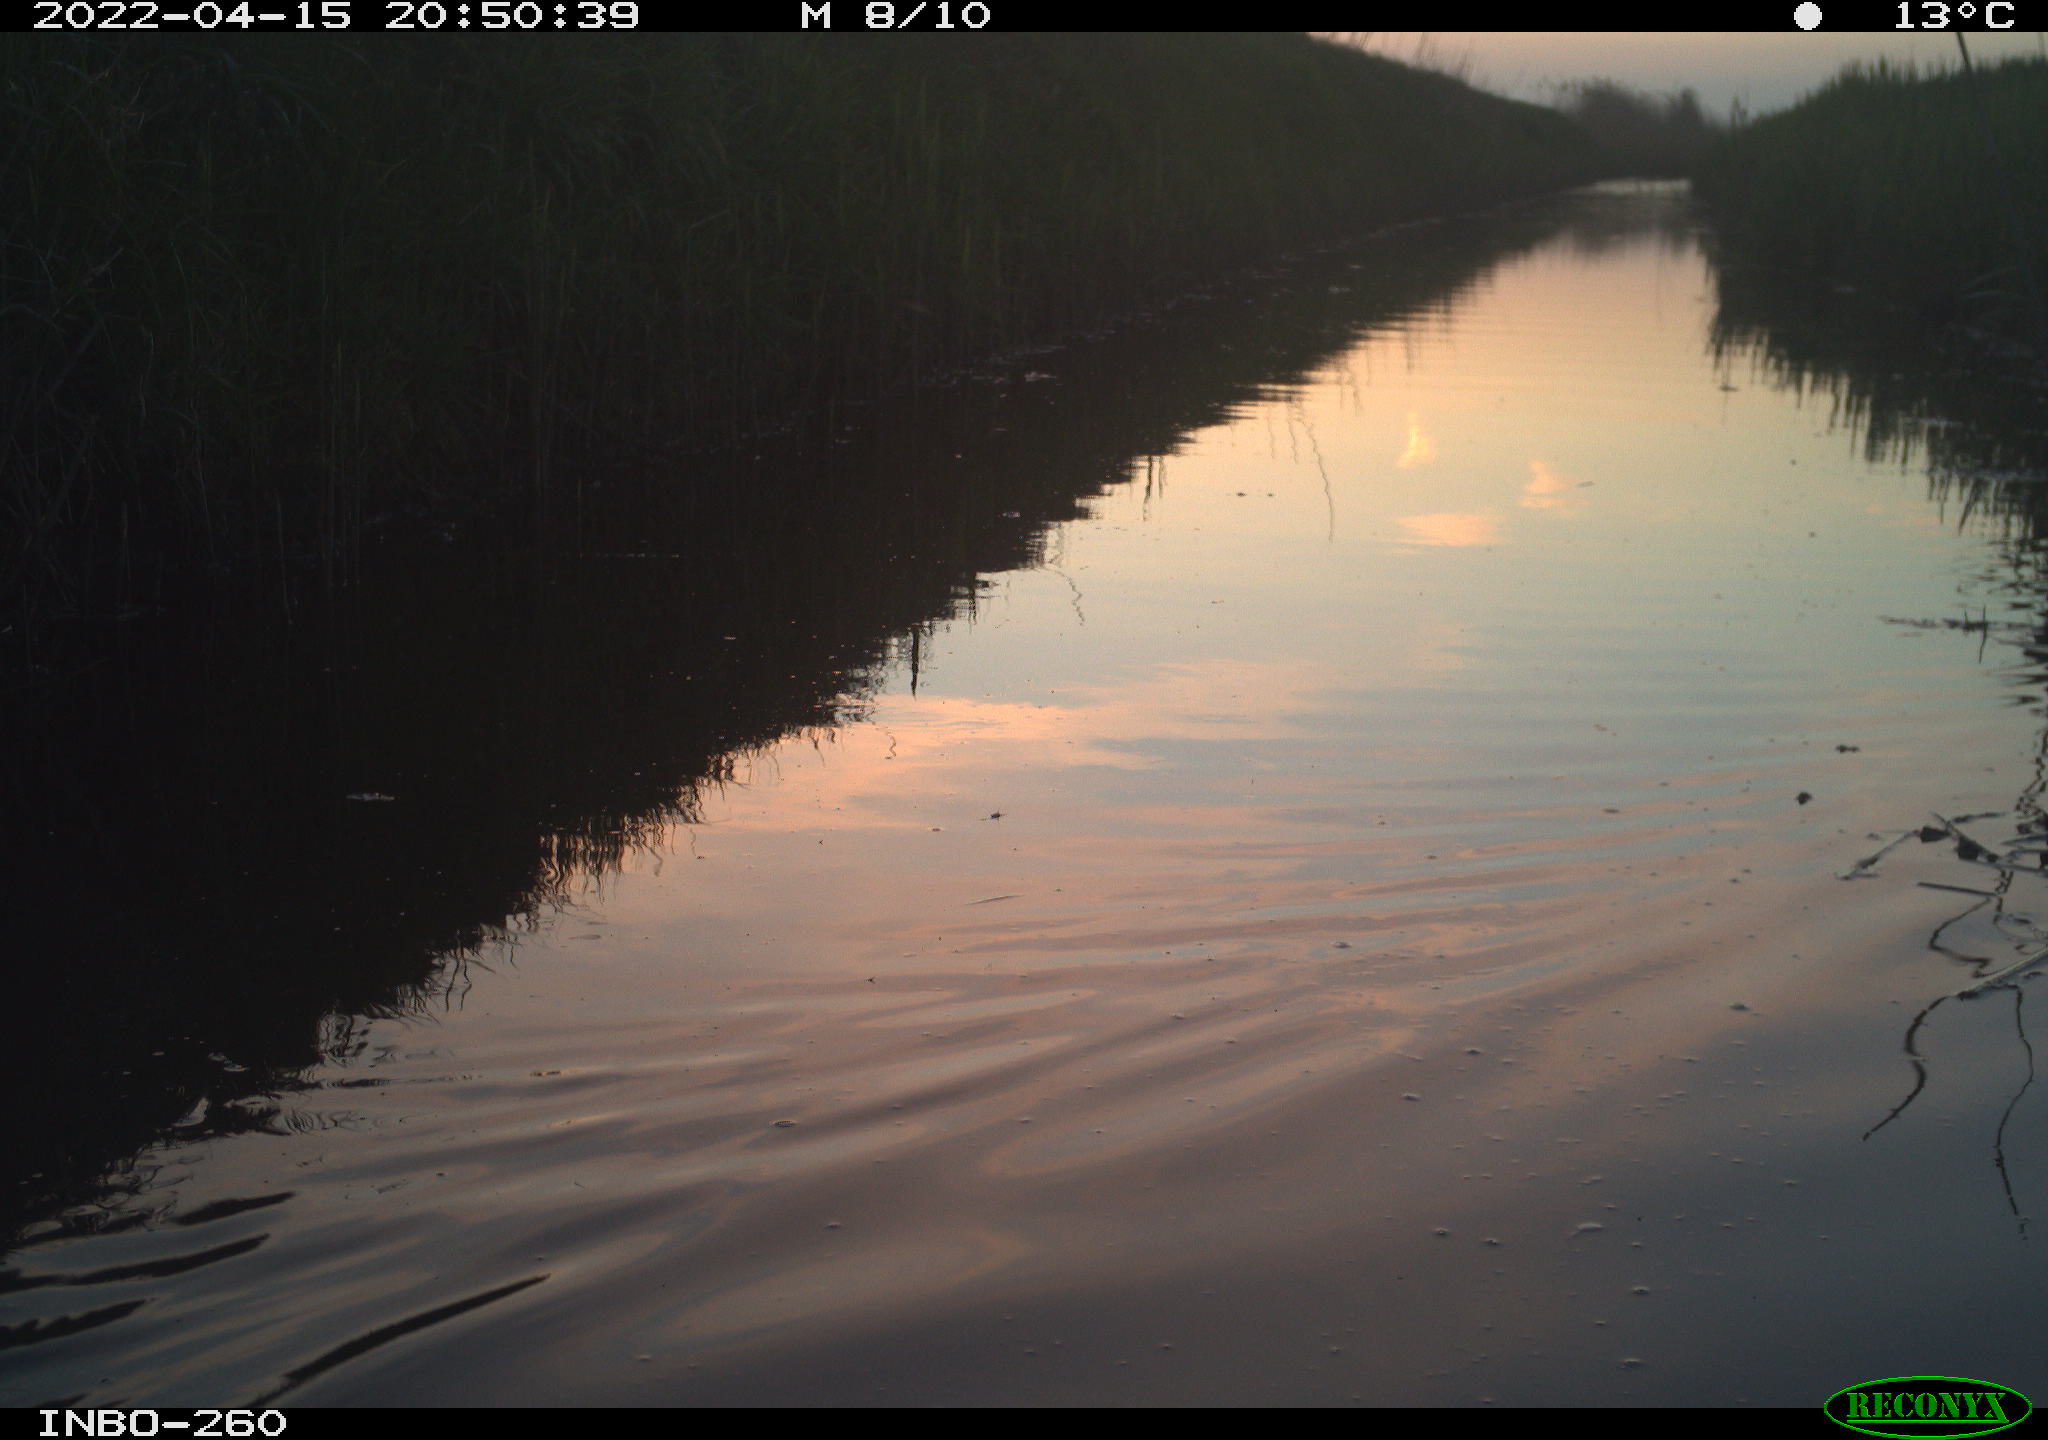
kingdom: Animalia
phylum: Chordata
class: Aves
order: Gruiformes
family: Rallidae
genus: Fulica
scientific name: Fulica atra
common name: Eurasian coot
